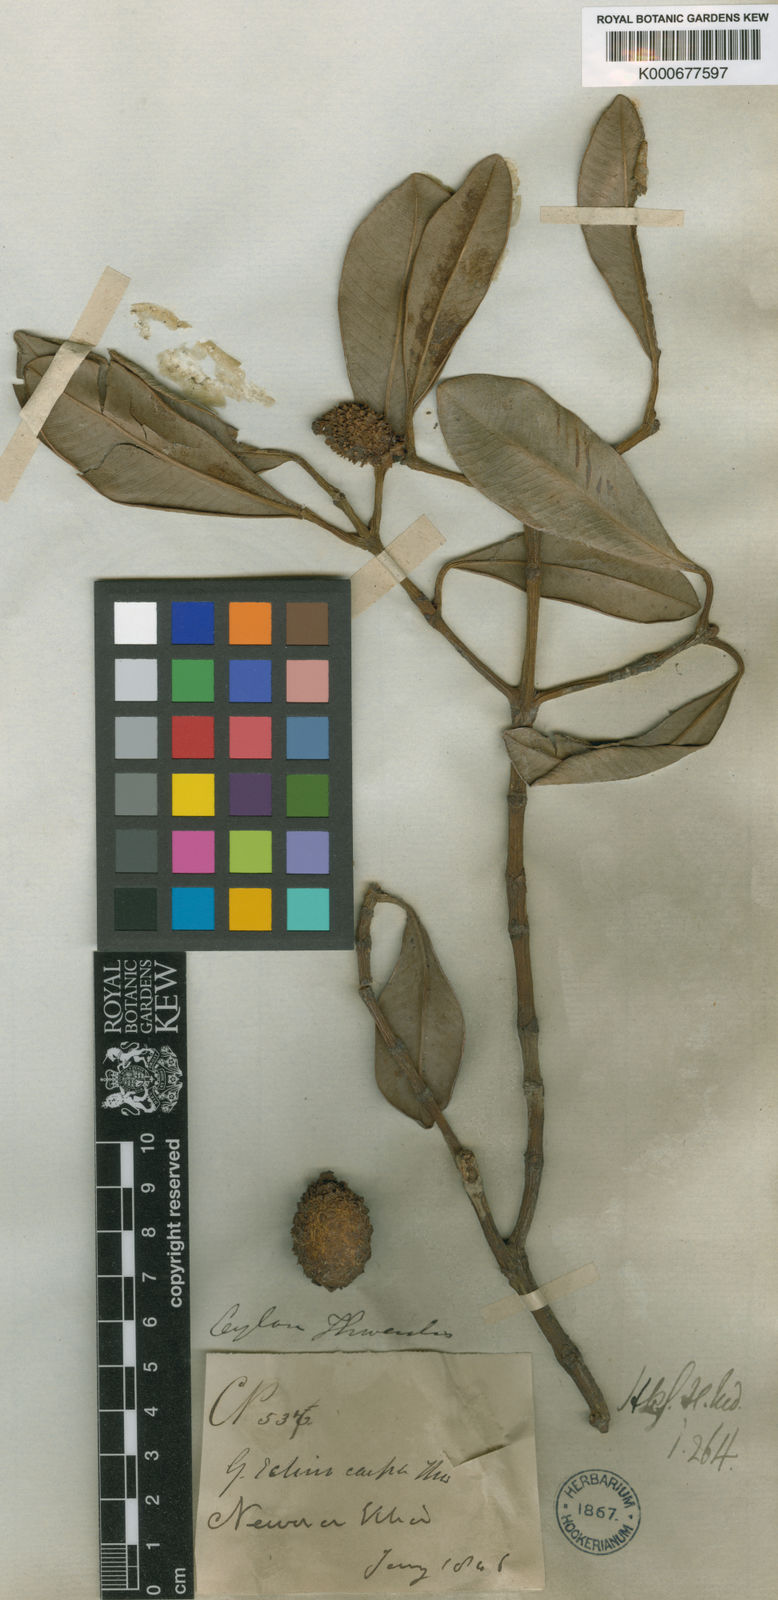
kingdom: Plantae
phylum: Tracheophyta
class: Magnoliopsida
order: Malpighiales
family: Clusiaceae
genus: Garcinia
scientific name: Garcinia echinocarpa
